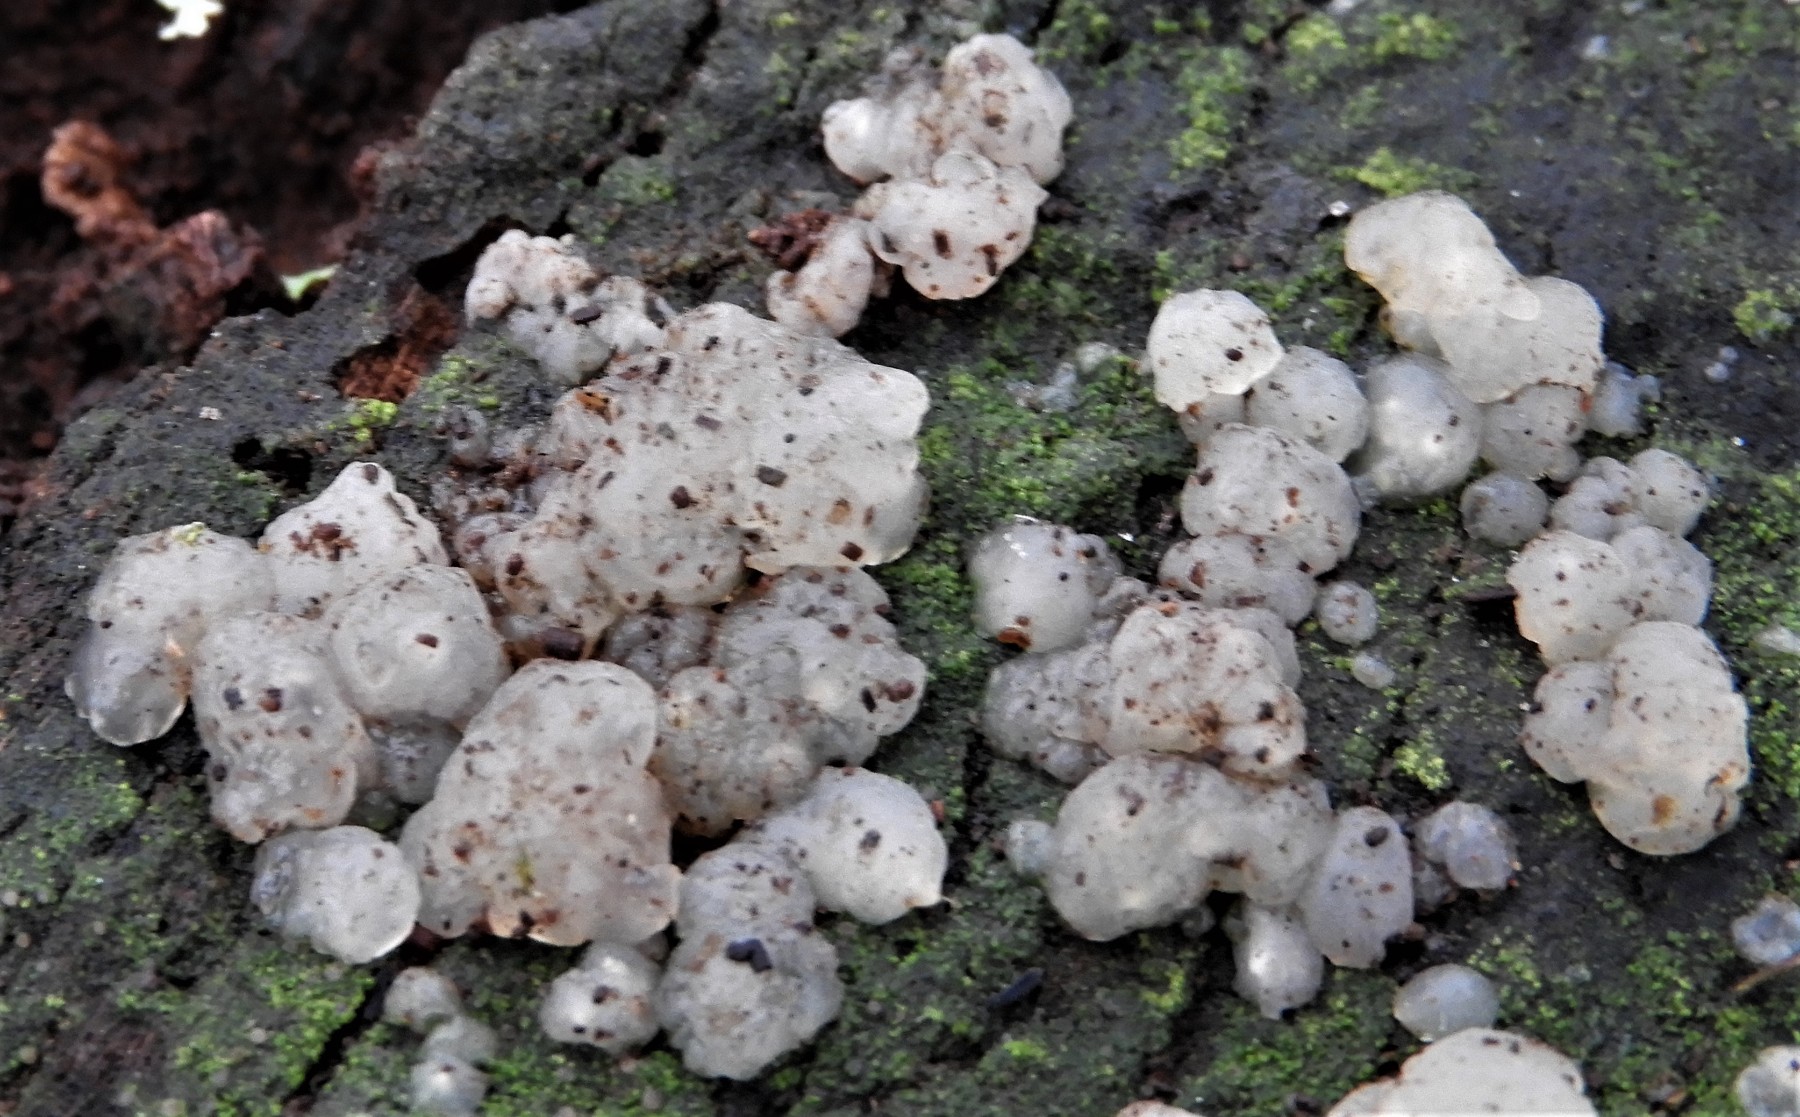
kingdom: Fungi
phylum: Basidiomycota
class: Agaricomycetes
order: Auriculariales
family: Hyaloriaceae
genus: Myxarium
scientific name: Myxarium nucleatum
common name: klar bævretop
